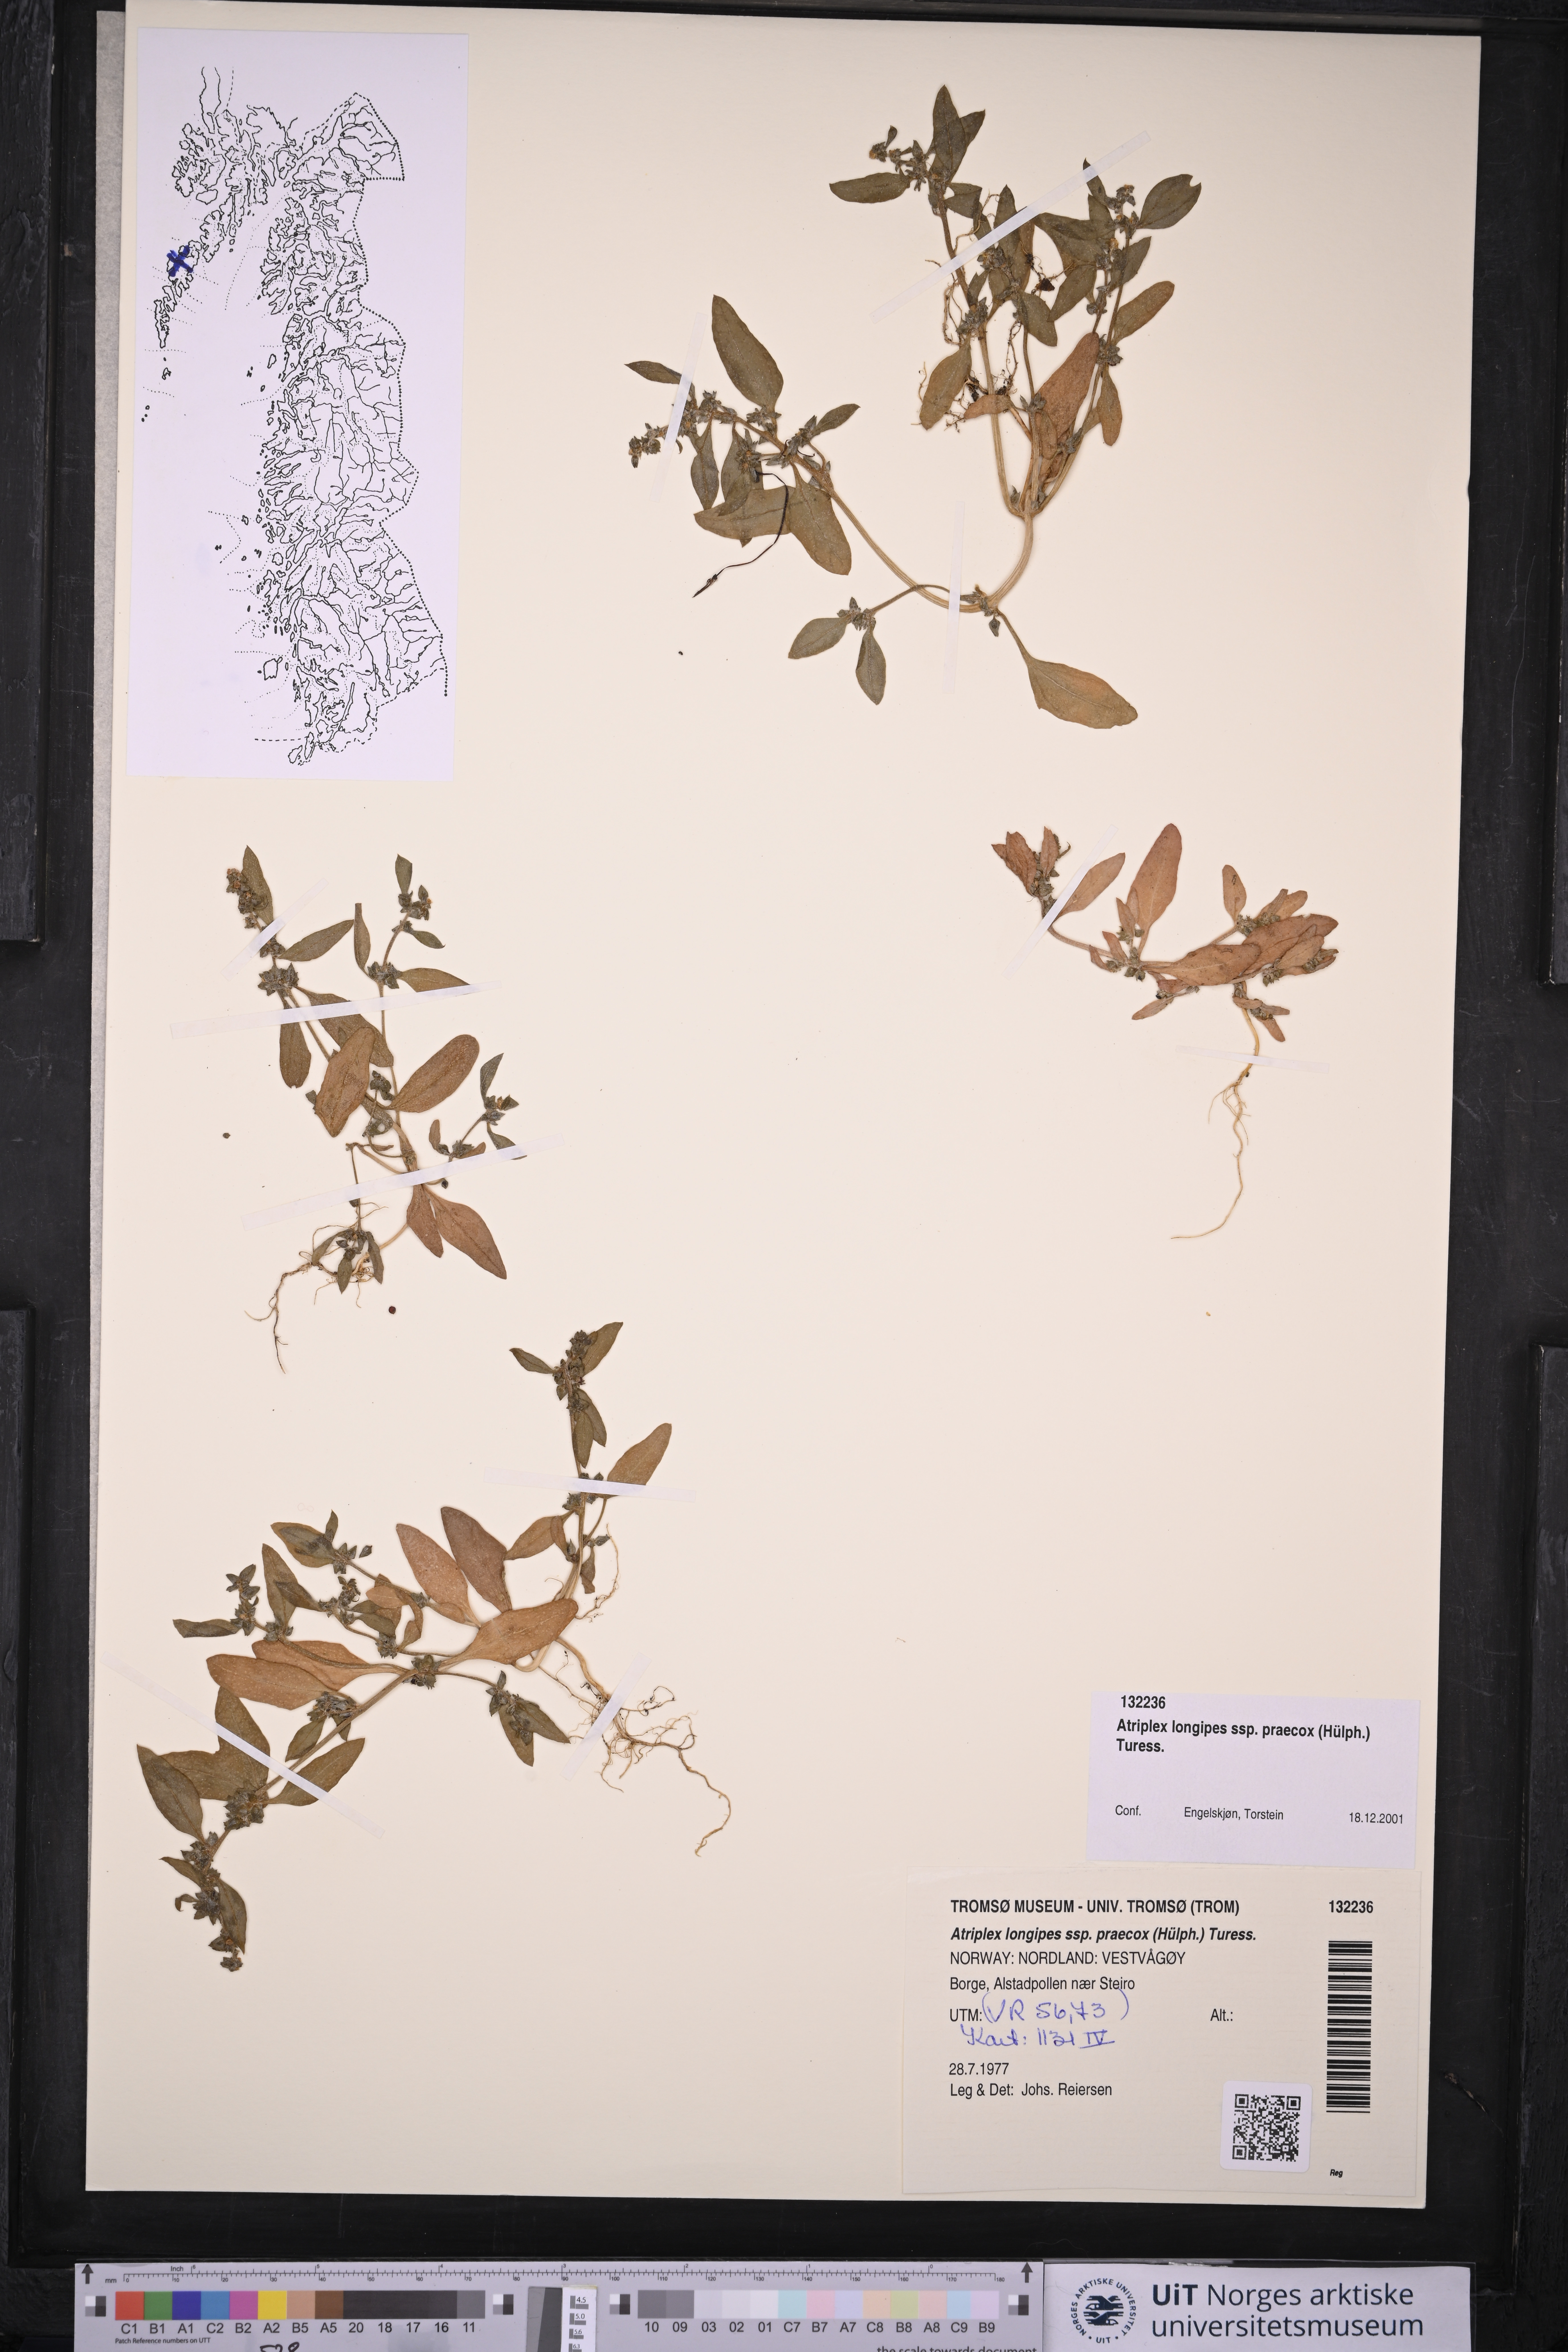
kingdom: Plantae
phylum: Tracheophyta
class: Magnoliopsida
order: Caryophyllales
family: Amaranthaceae
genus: Atriplex
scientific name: Atriplex praecox
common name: Early orache
